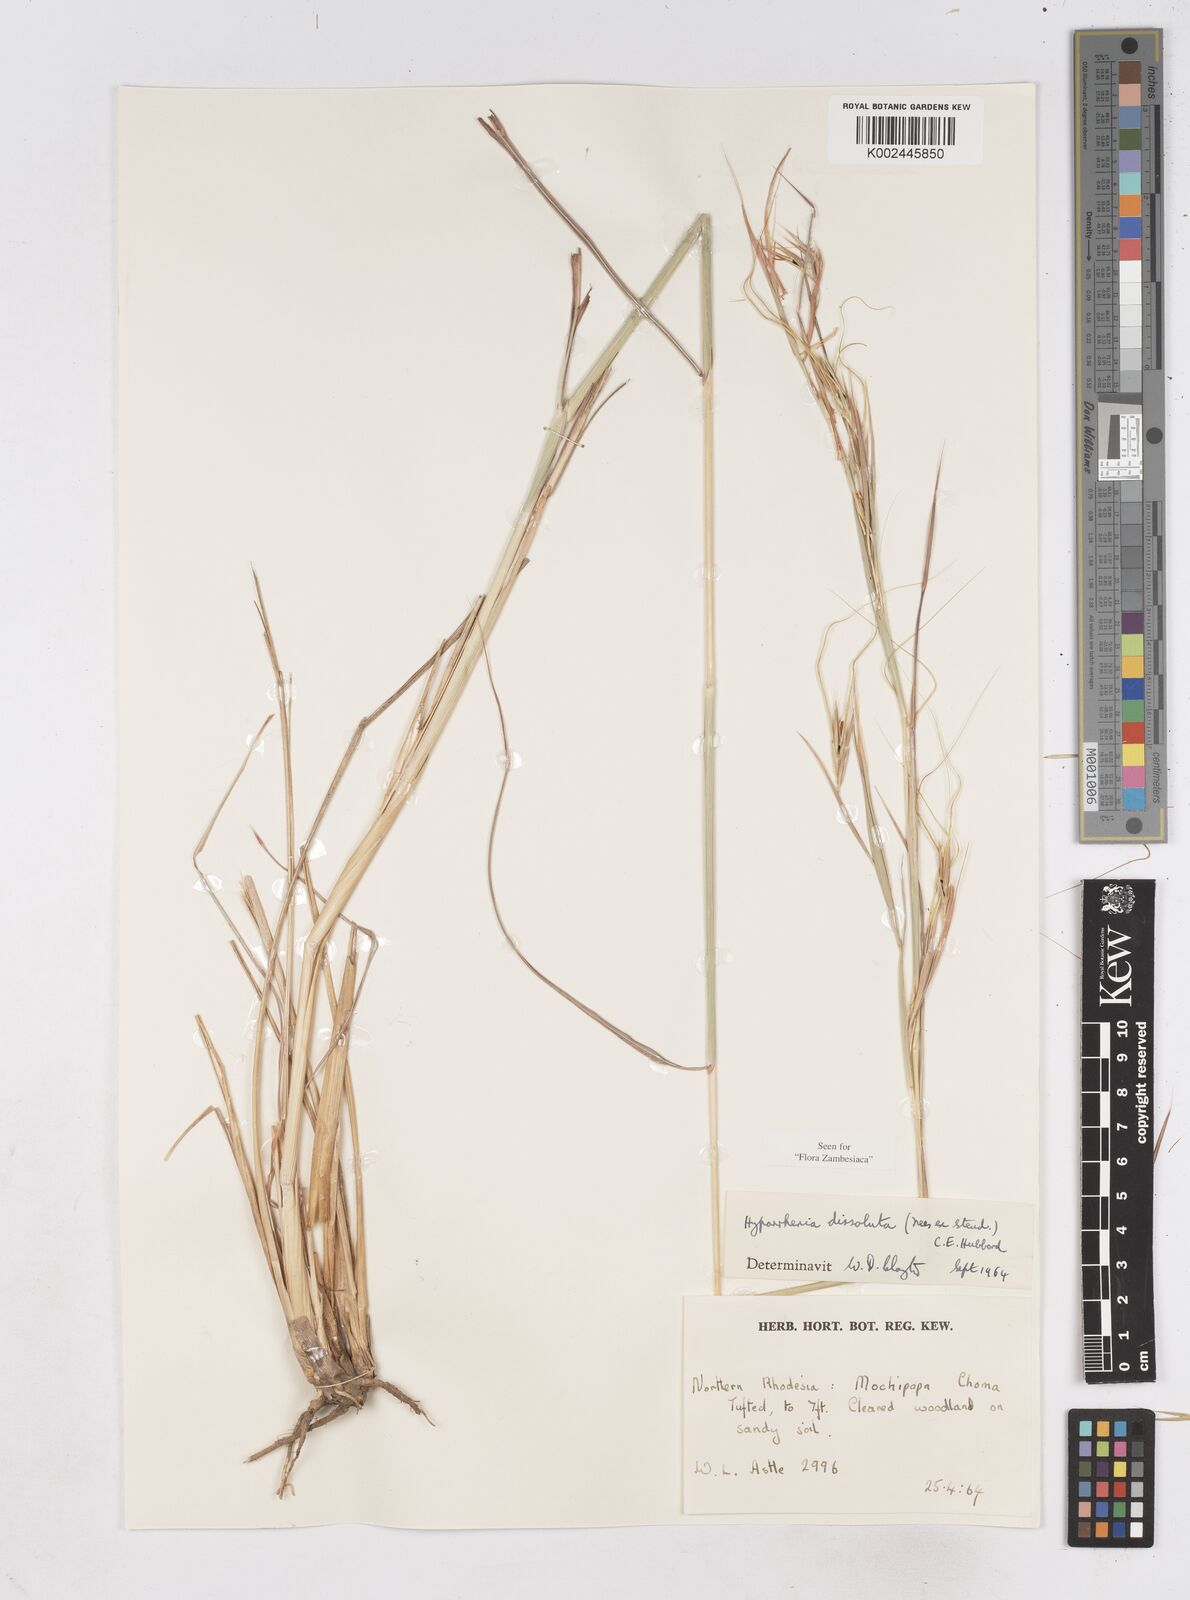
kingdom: Plantae
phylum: Tracheophyta
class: Liliopsida
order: Poales
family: Poaceae
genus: Hyperthelia
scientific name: Hyperthelia dissoluta
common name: Yellow thatching grass
